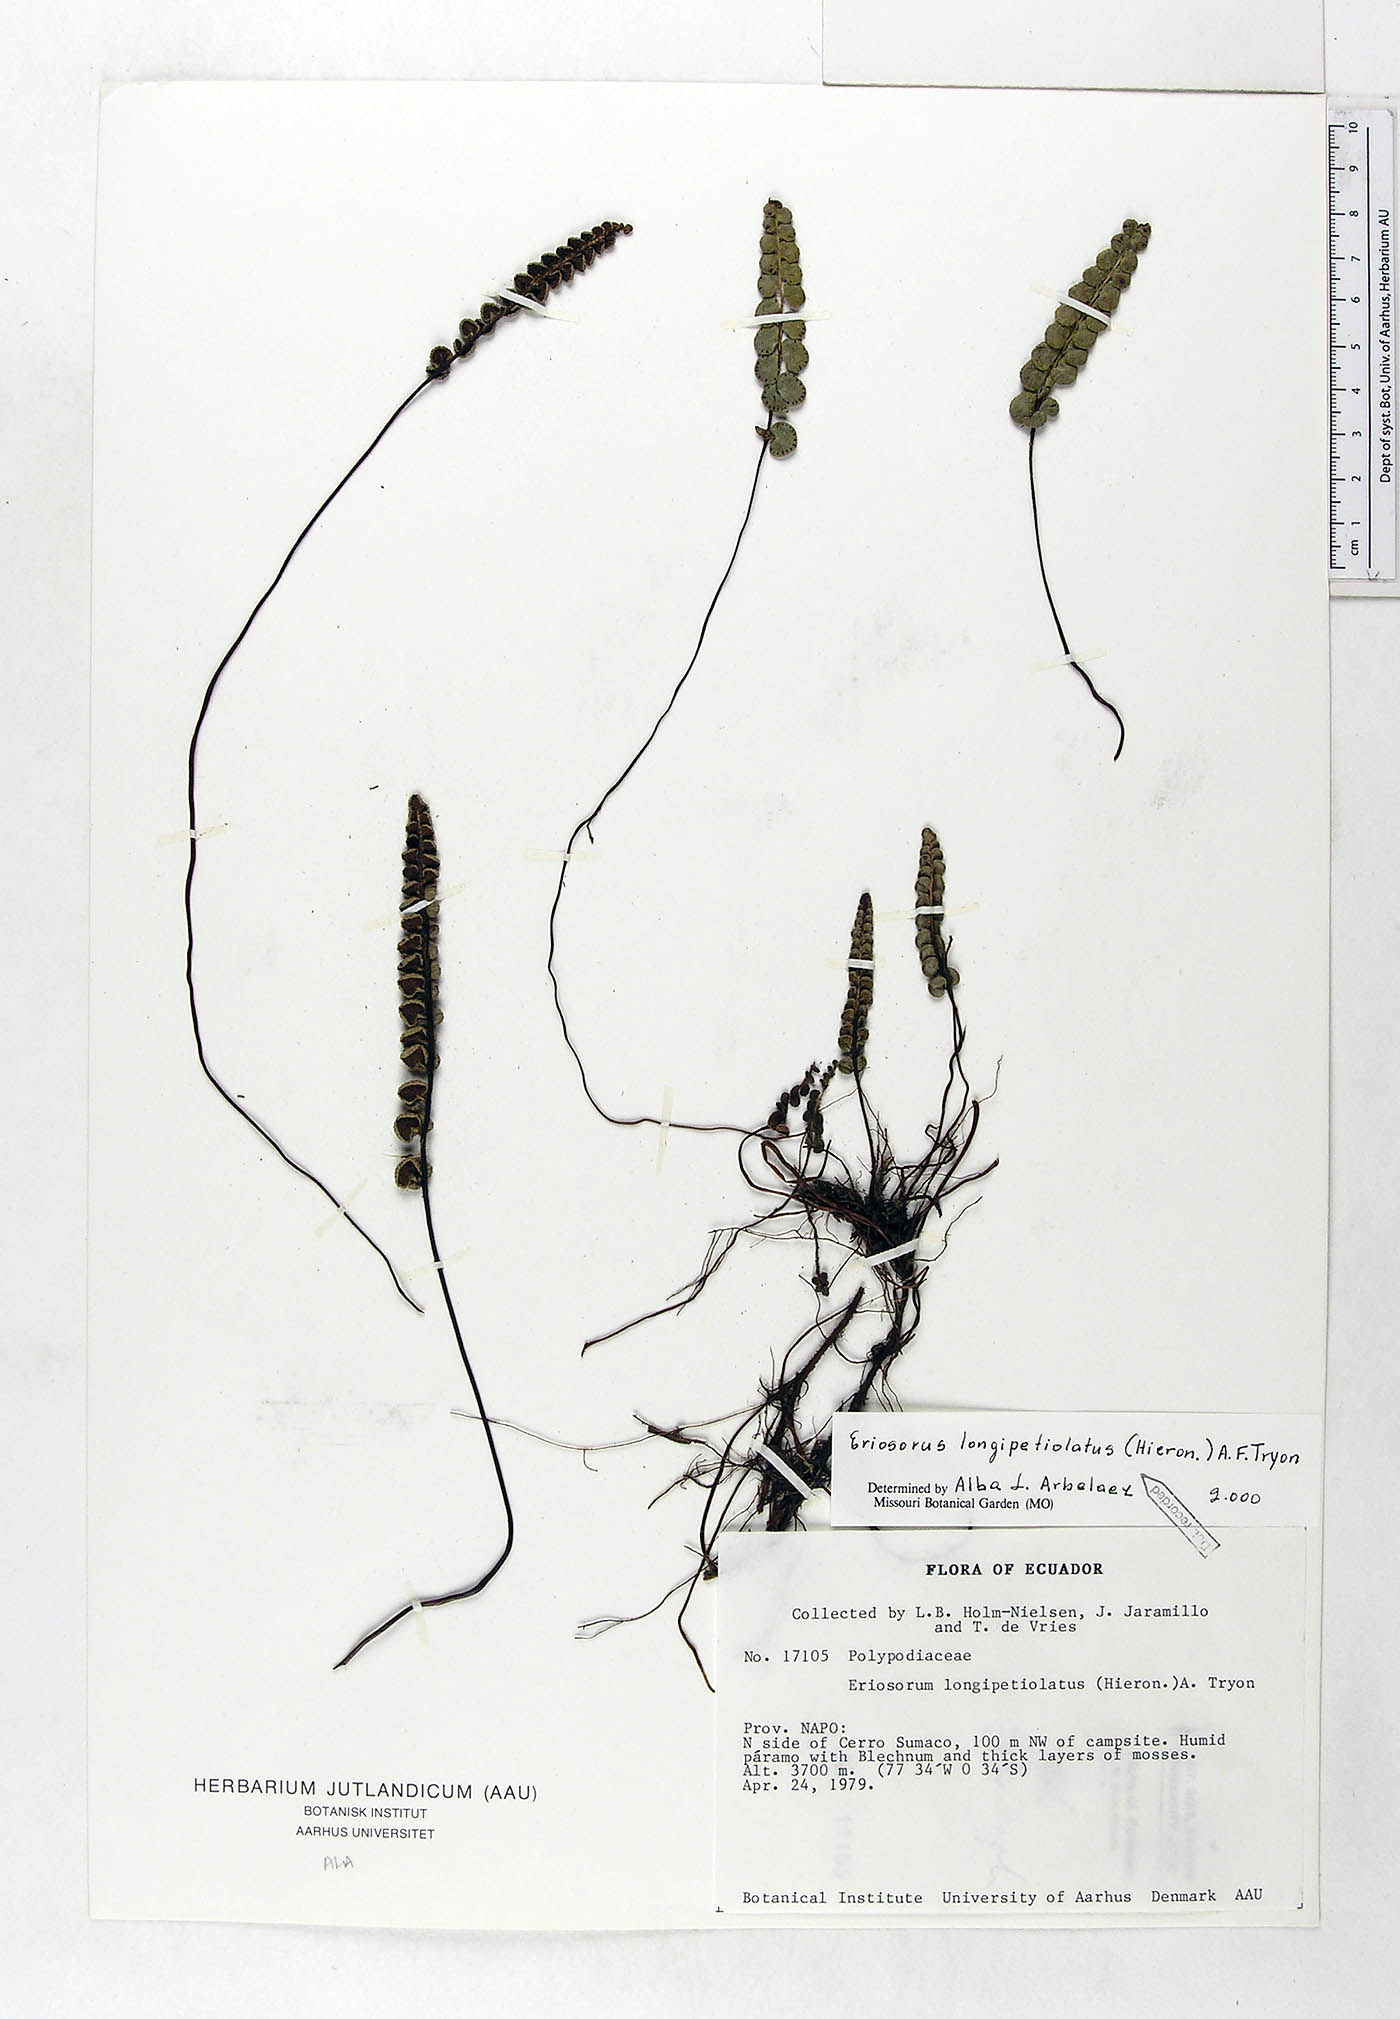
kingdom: Plantae
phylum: Tracheophyta
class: Polypodiopsida
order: Polypodiales
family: Pteridaceae
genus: Jamesonia
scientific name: Jamesonia longipetiolata
